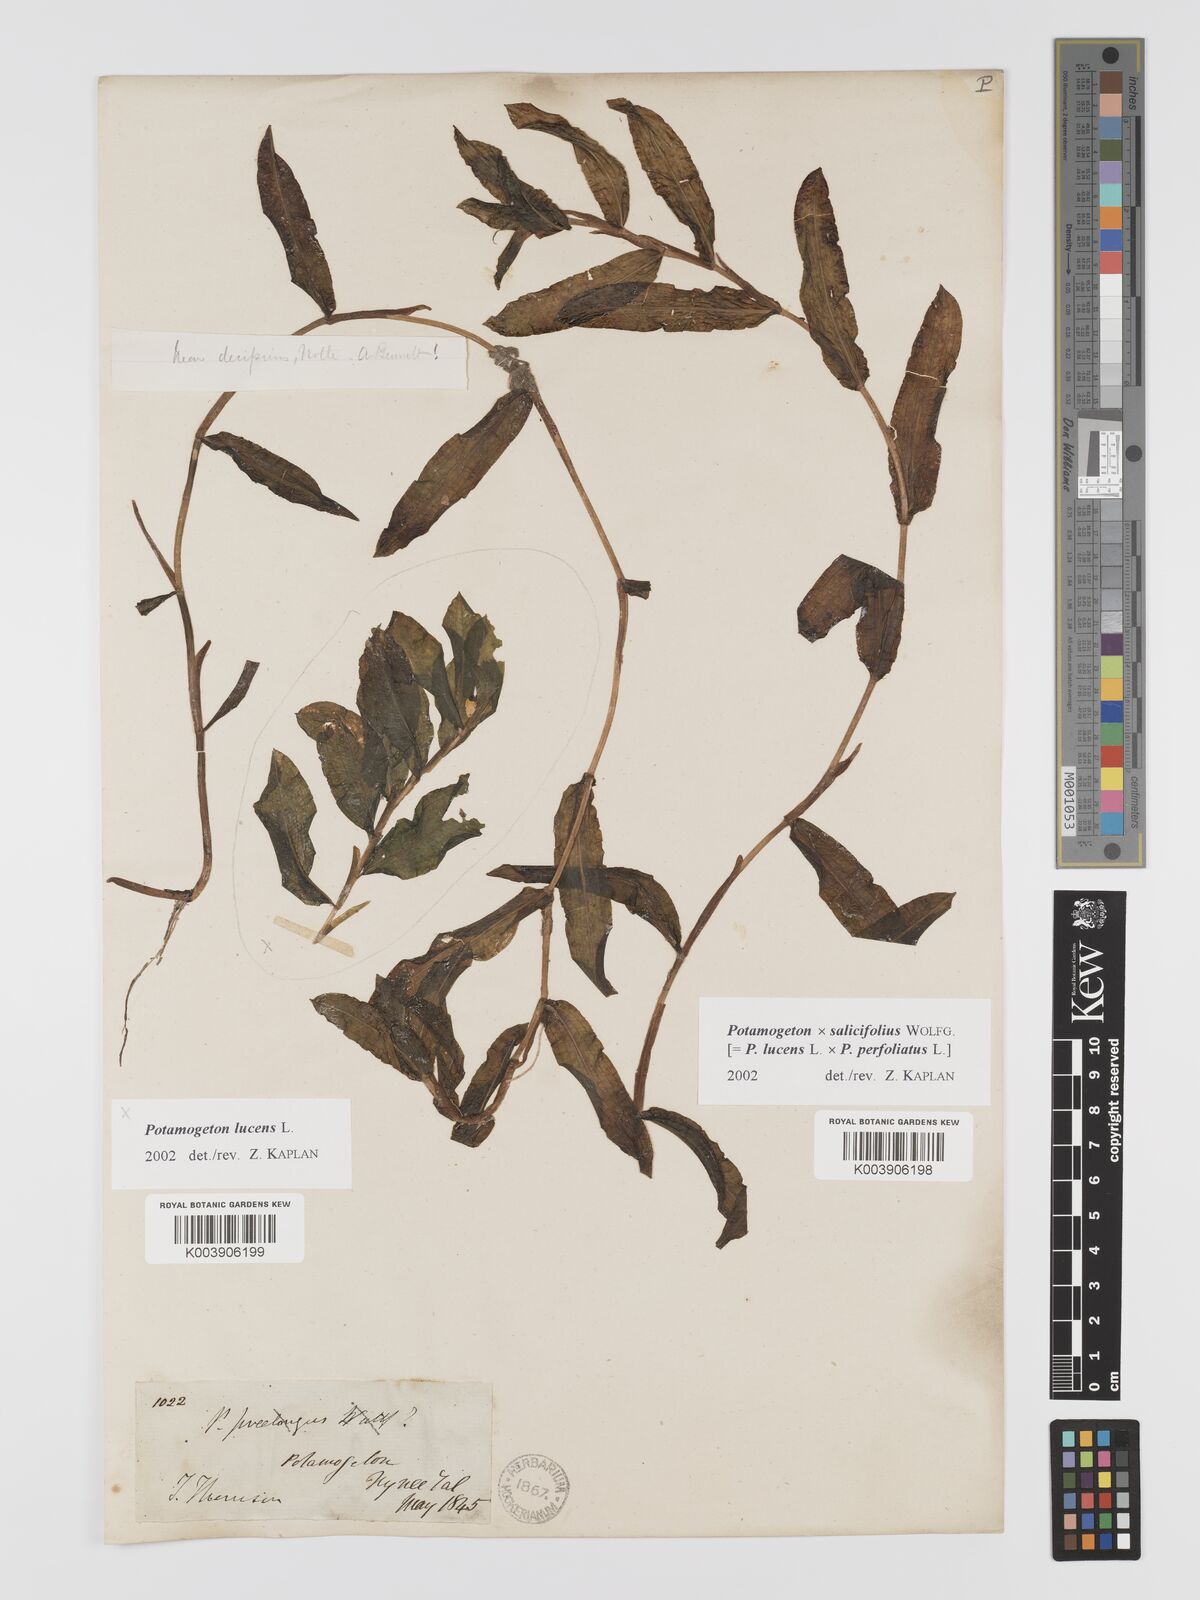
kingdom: Plantae
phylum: Tracheophyta
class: Liliopsida
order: Alismatales
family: Potamogetonaceae
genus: Potamogeton
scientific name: Potamogeton salicifolius
